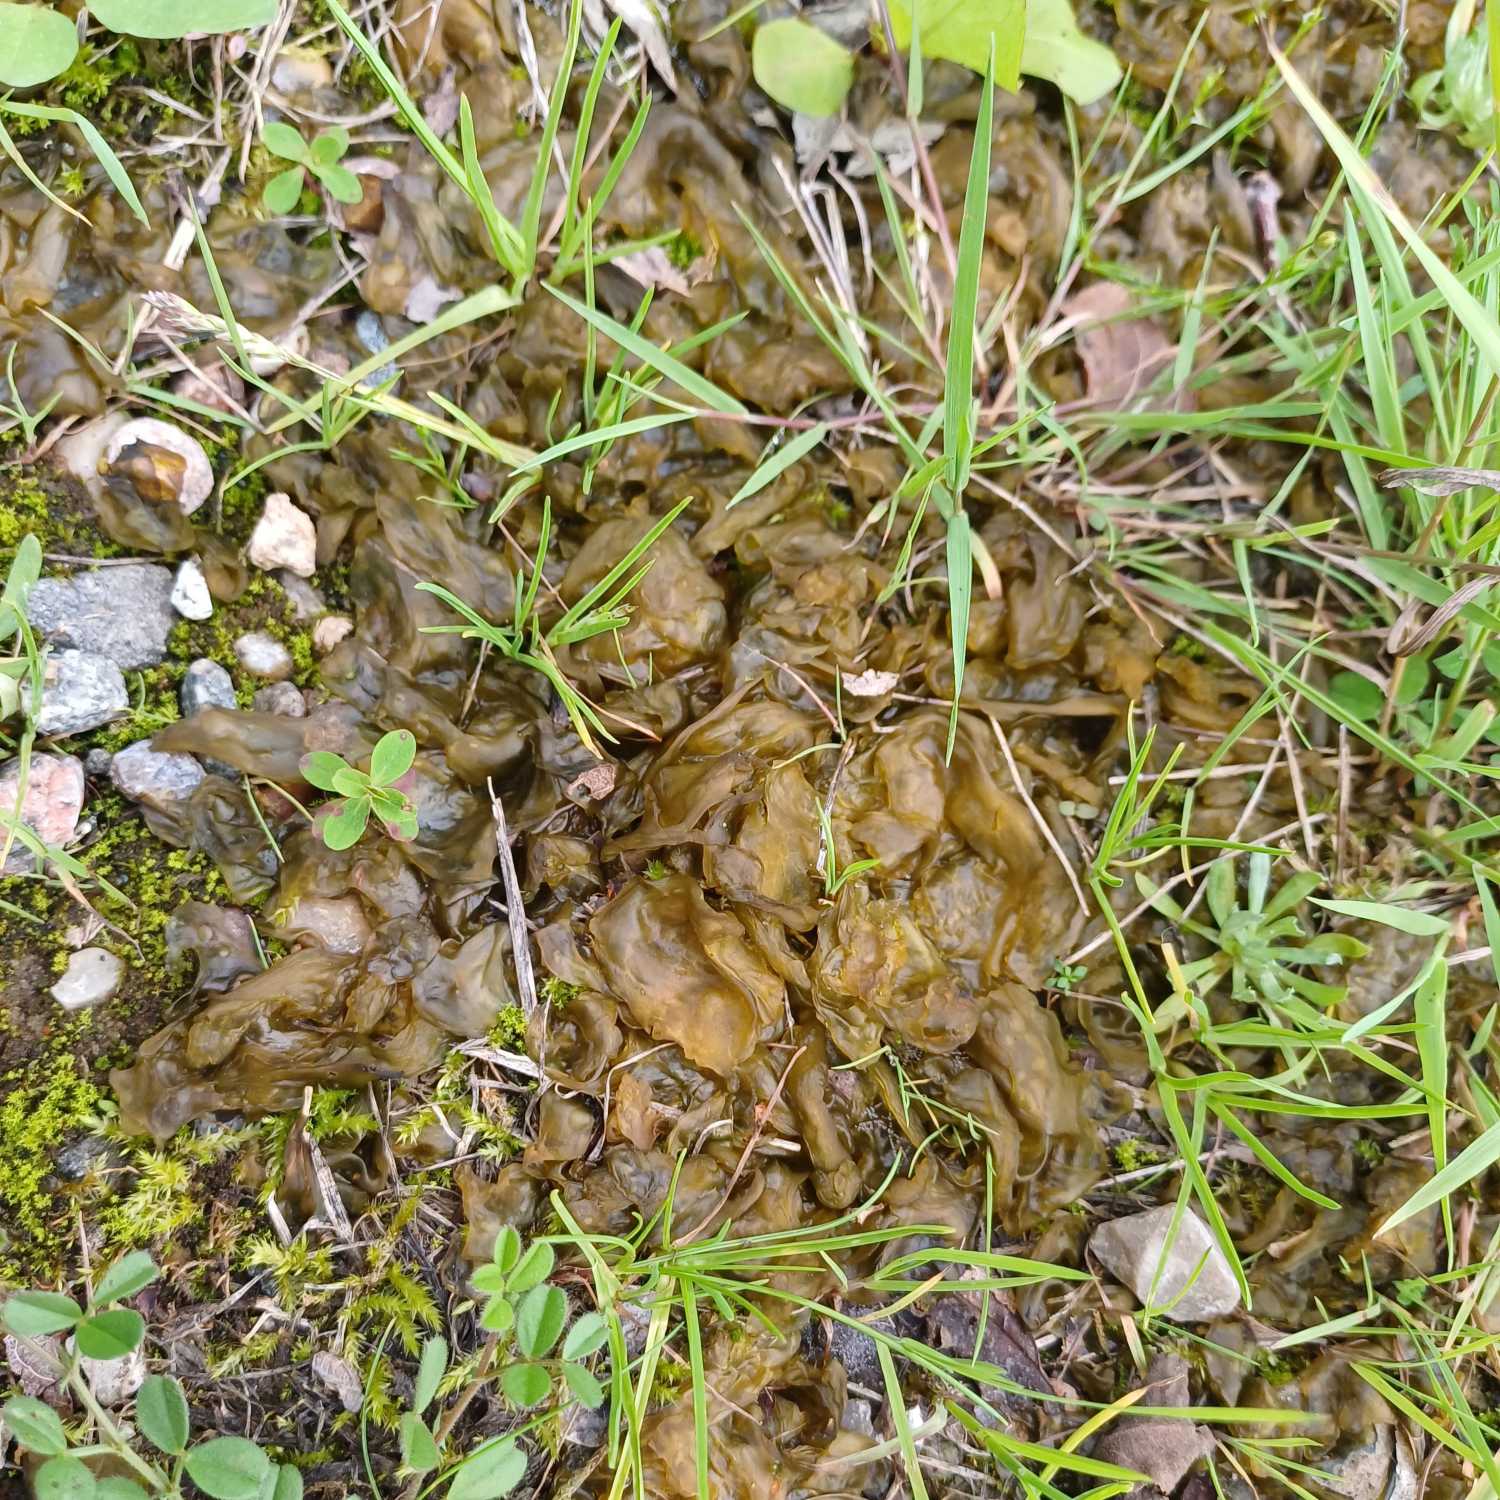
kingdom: Bacteria
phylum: Cyanobacteria
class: Cyanobacteriia
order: Cyanobacteriales
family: Nostocaceae
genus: Nostoc
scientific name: Nostoc commune
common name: Skyfald
